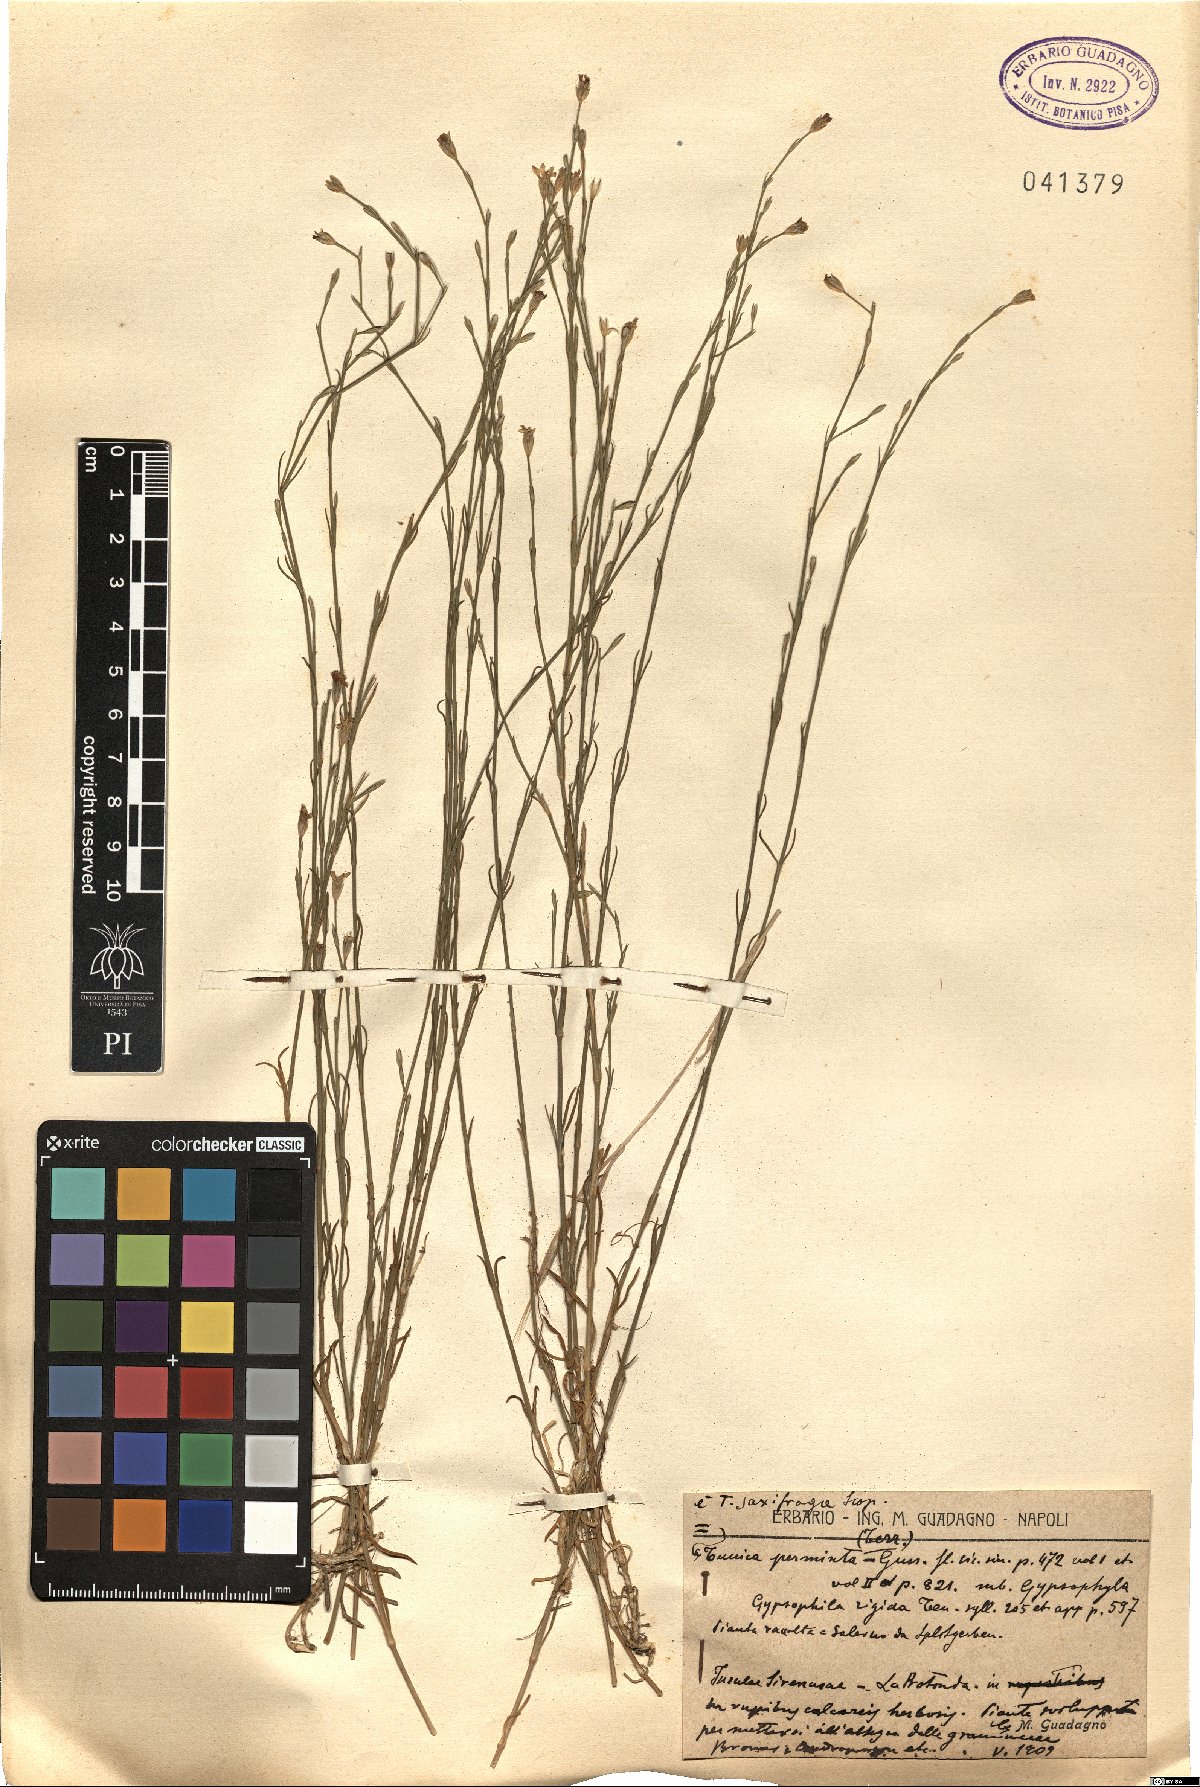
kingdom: Plantae
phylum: Tracheophyta
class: Magnoliopsida
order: Caryophyllales
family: Caryophyllaceae
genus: Petrorhagia
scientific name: Petrorhagia saxifraga
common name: Tunicflower
